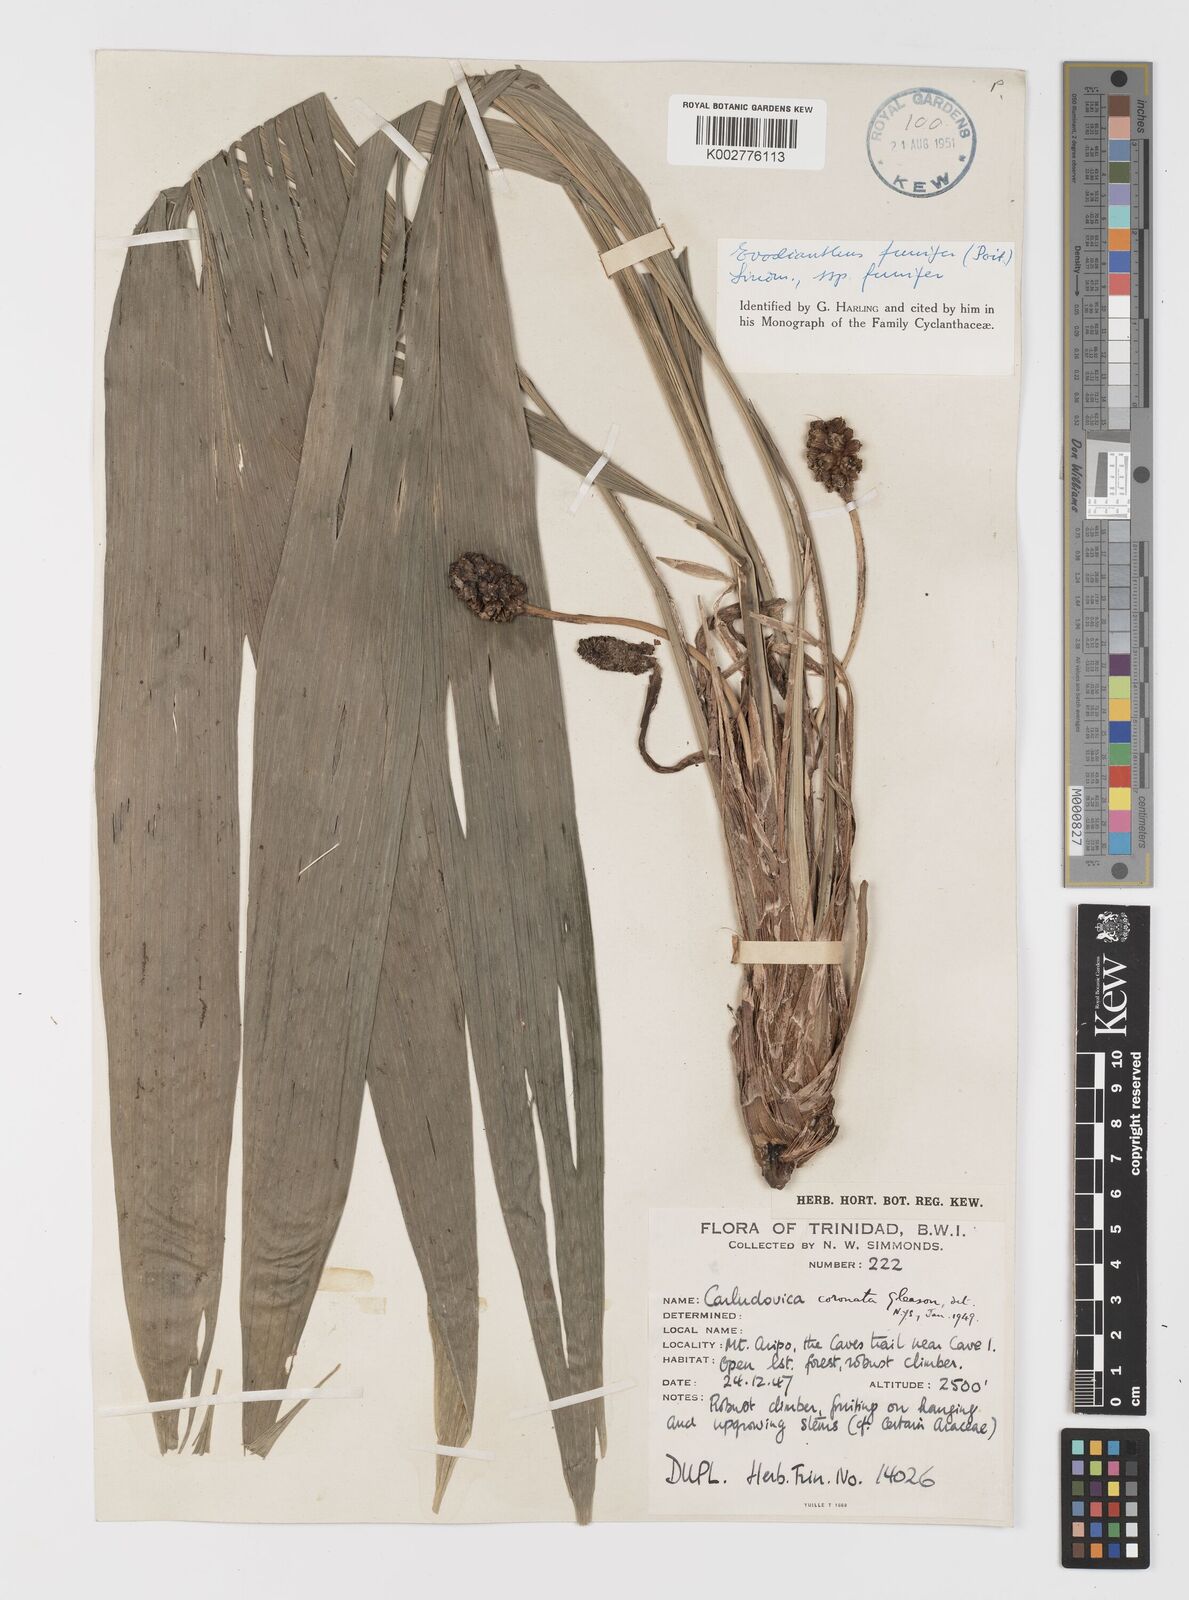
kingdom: Plantae
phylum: Tracheophyta
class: Liliopsida
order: Pandanales
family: Cyclanthaceae
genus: Evodianthus
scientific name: Evodianthus funifer
